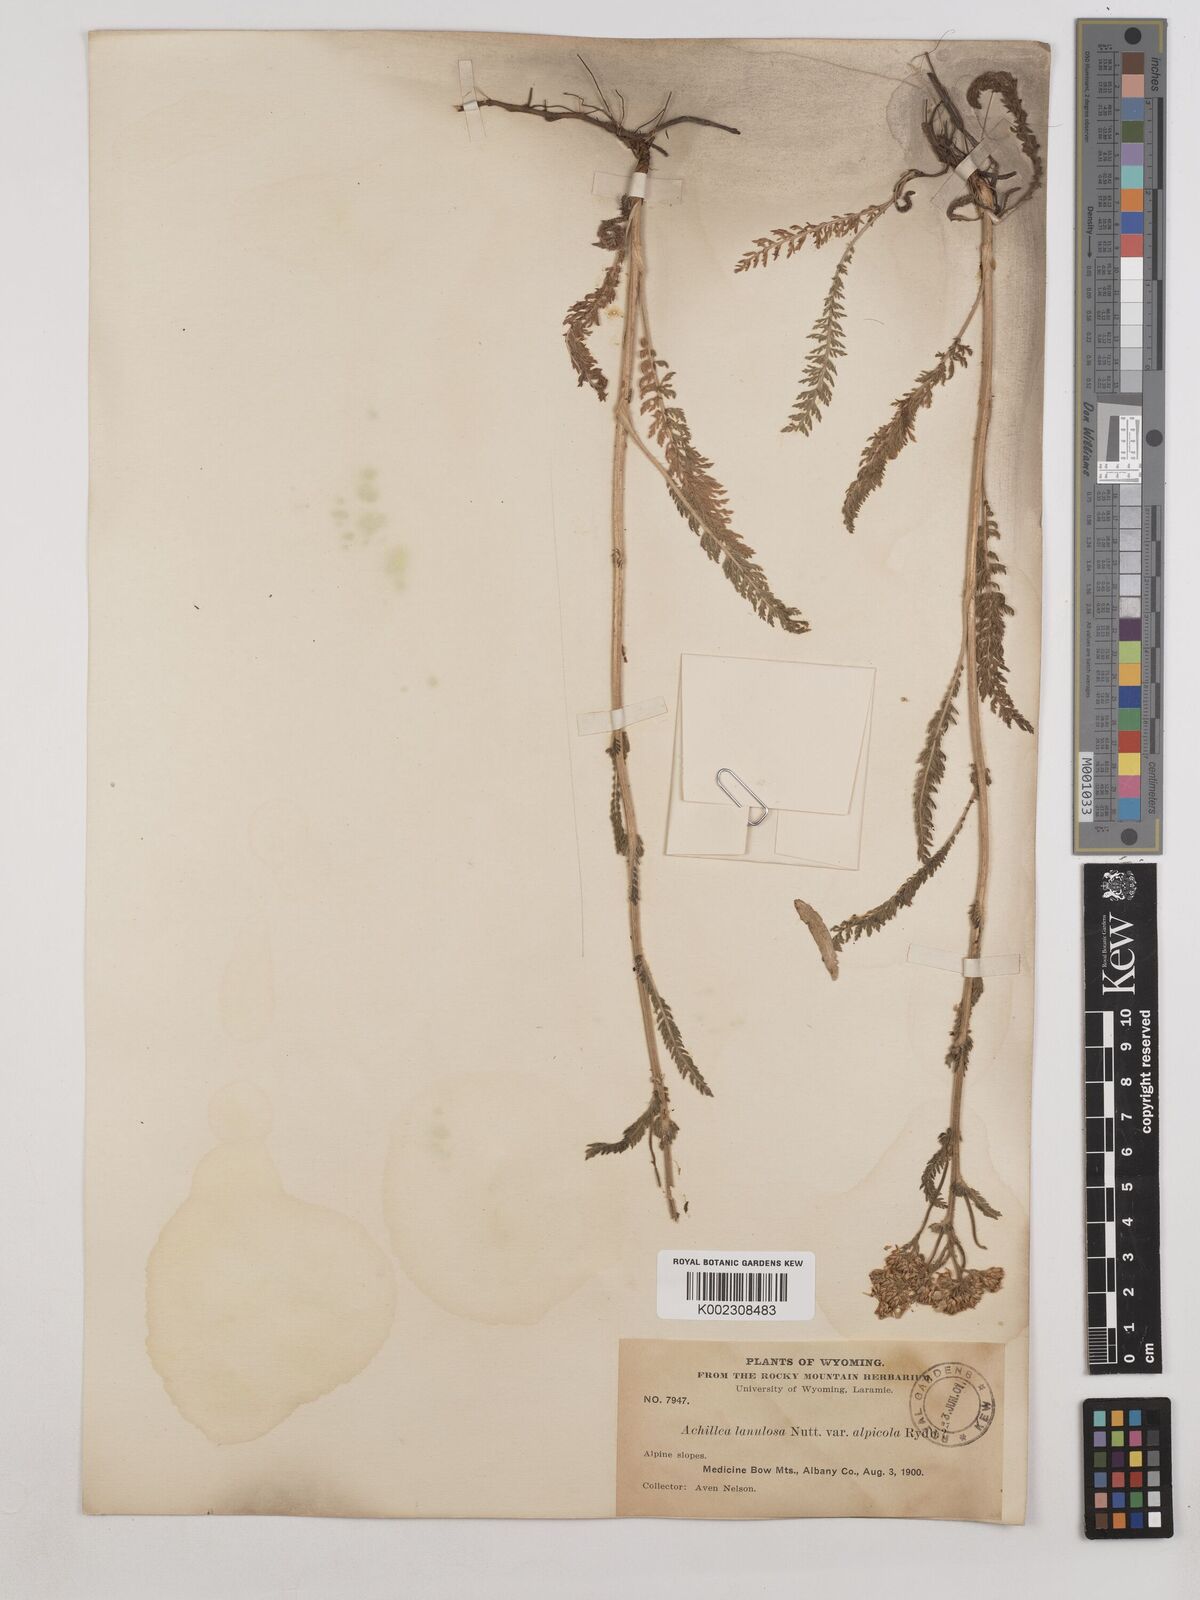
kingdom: Plantae
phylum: Tracheophyta
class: Magnoliopsida
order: Asterales
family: Asteraceae
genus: Achillea
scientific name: Achillea millefolium
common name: Yarrow
